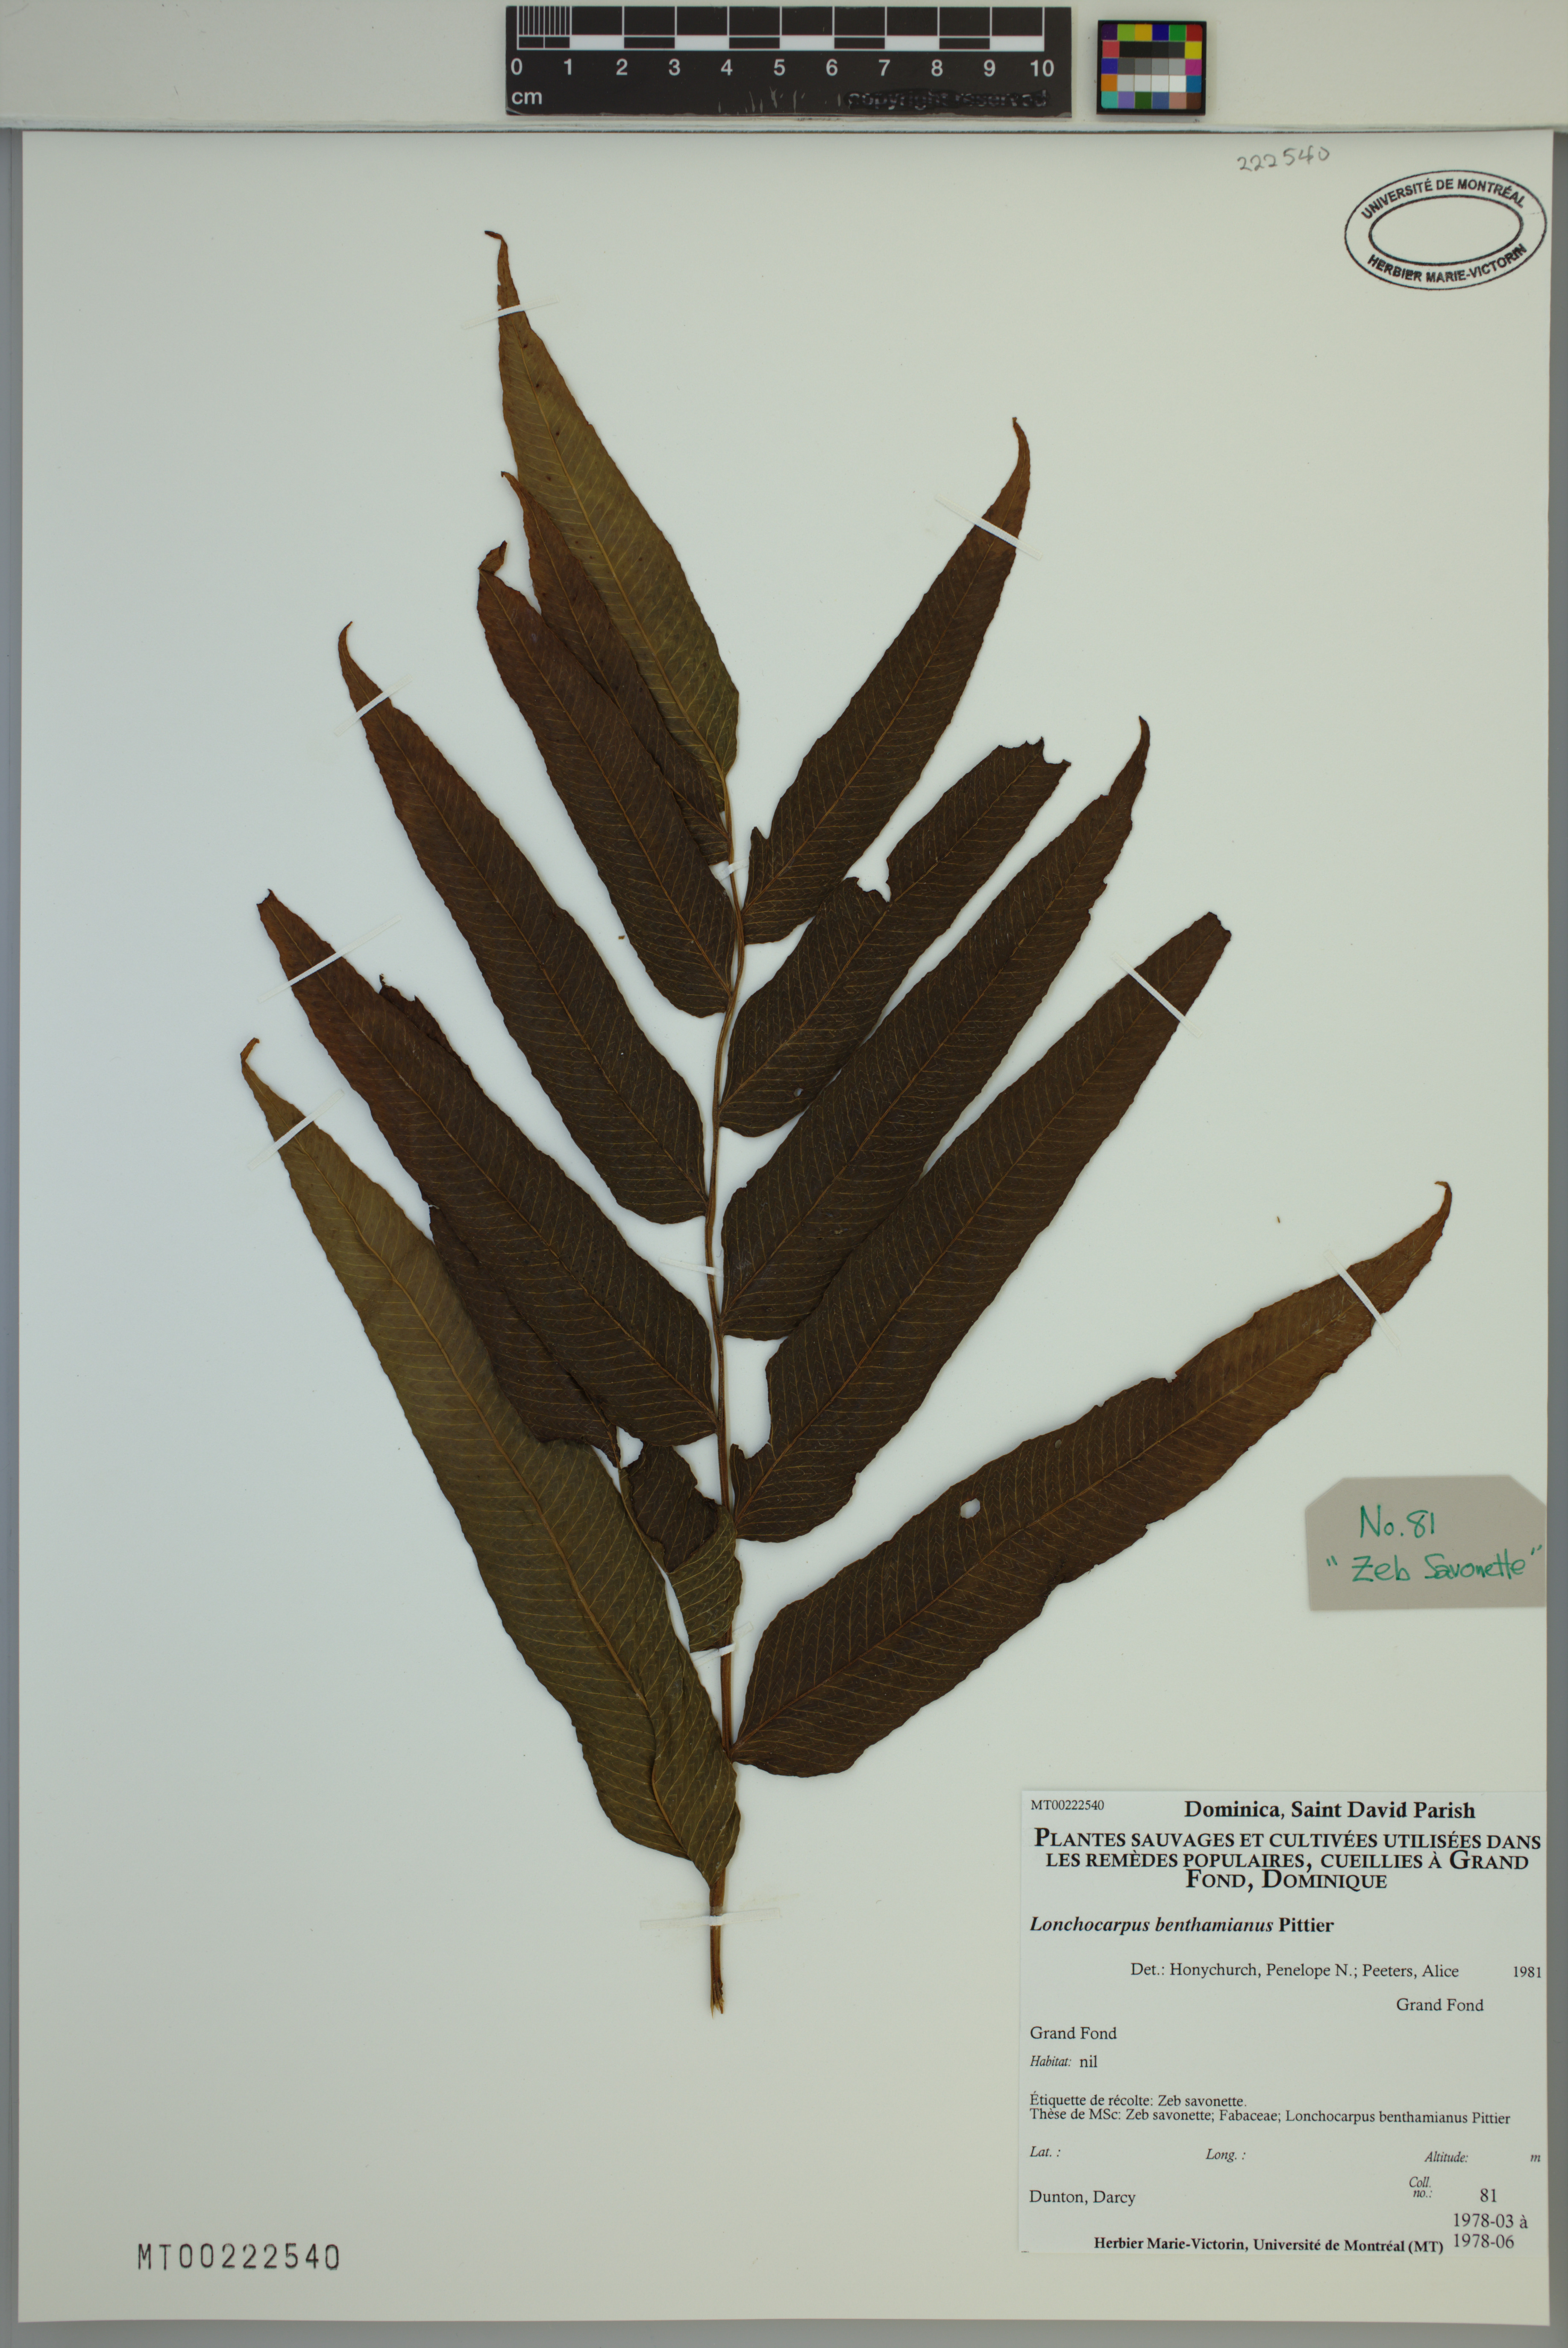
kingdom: Plantae
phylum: Tracheophyta
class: Magnoliopsida
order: Fabales
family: Fabaceae
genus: Lonchocarpus
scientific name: Lonchocarpus punctatus
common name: Dotted lancepod
